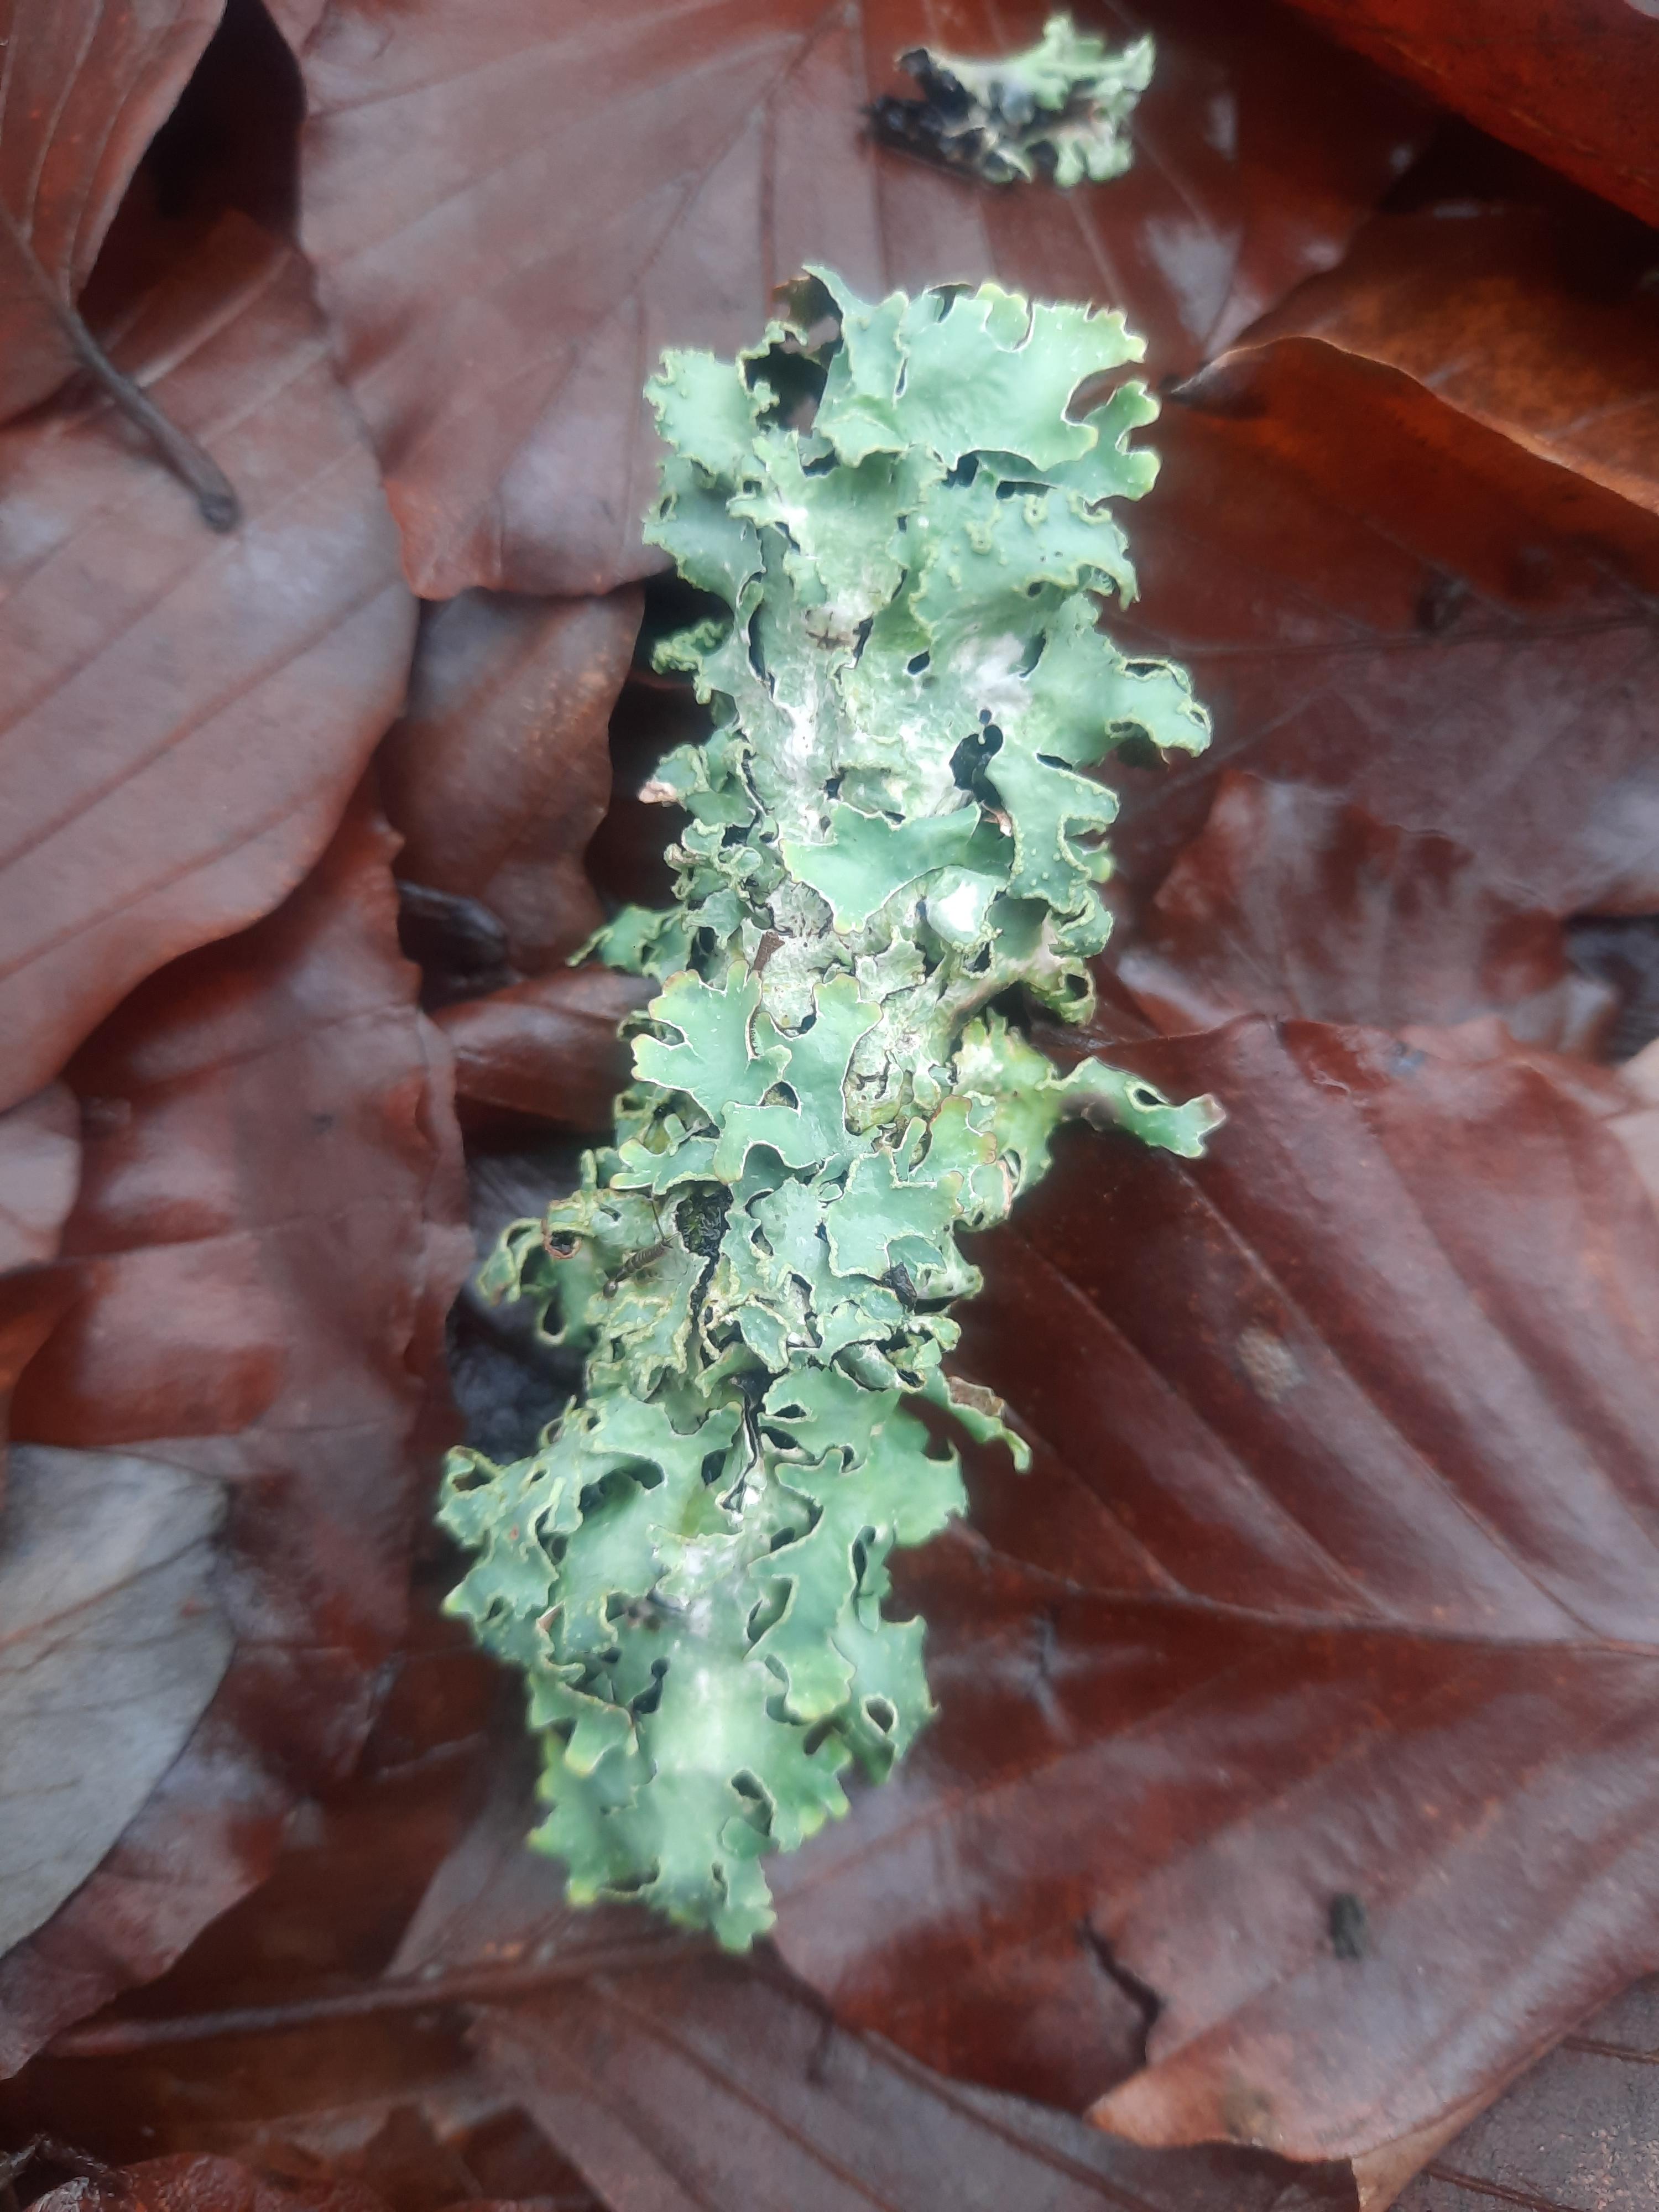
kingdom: Fungi
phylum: Ascomycota
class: Lecanoromycetes
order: Lecanorales
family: Parmeliaceae
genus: Parmelia
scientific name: Parmelia sulcata
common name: rynket skållav
